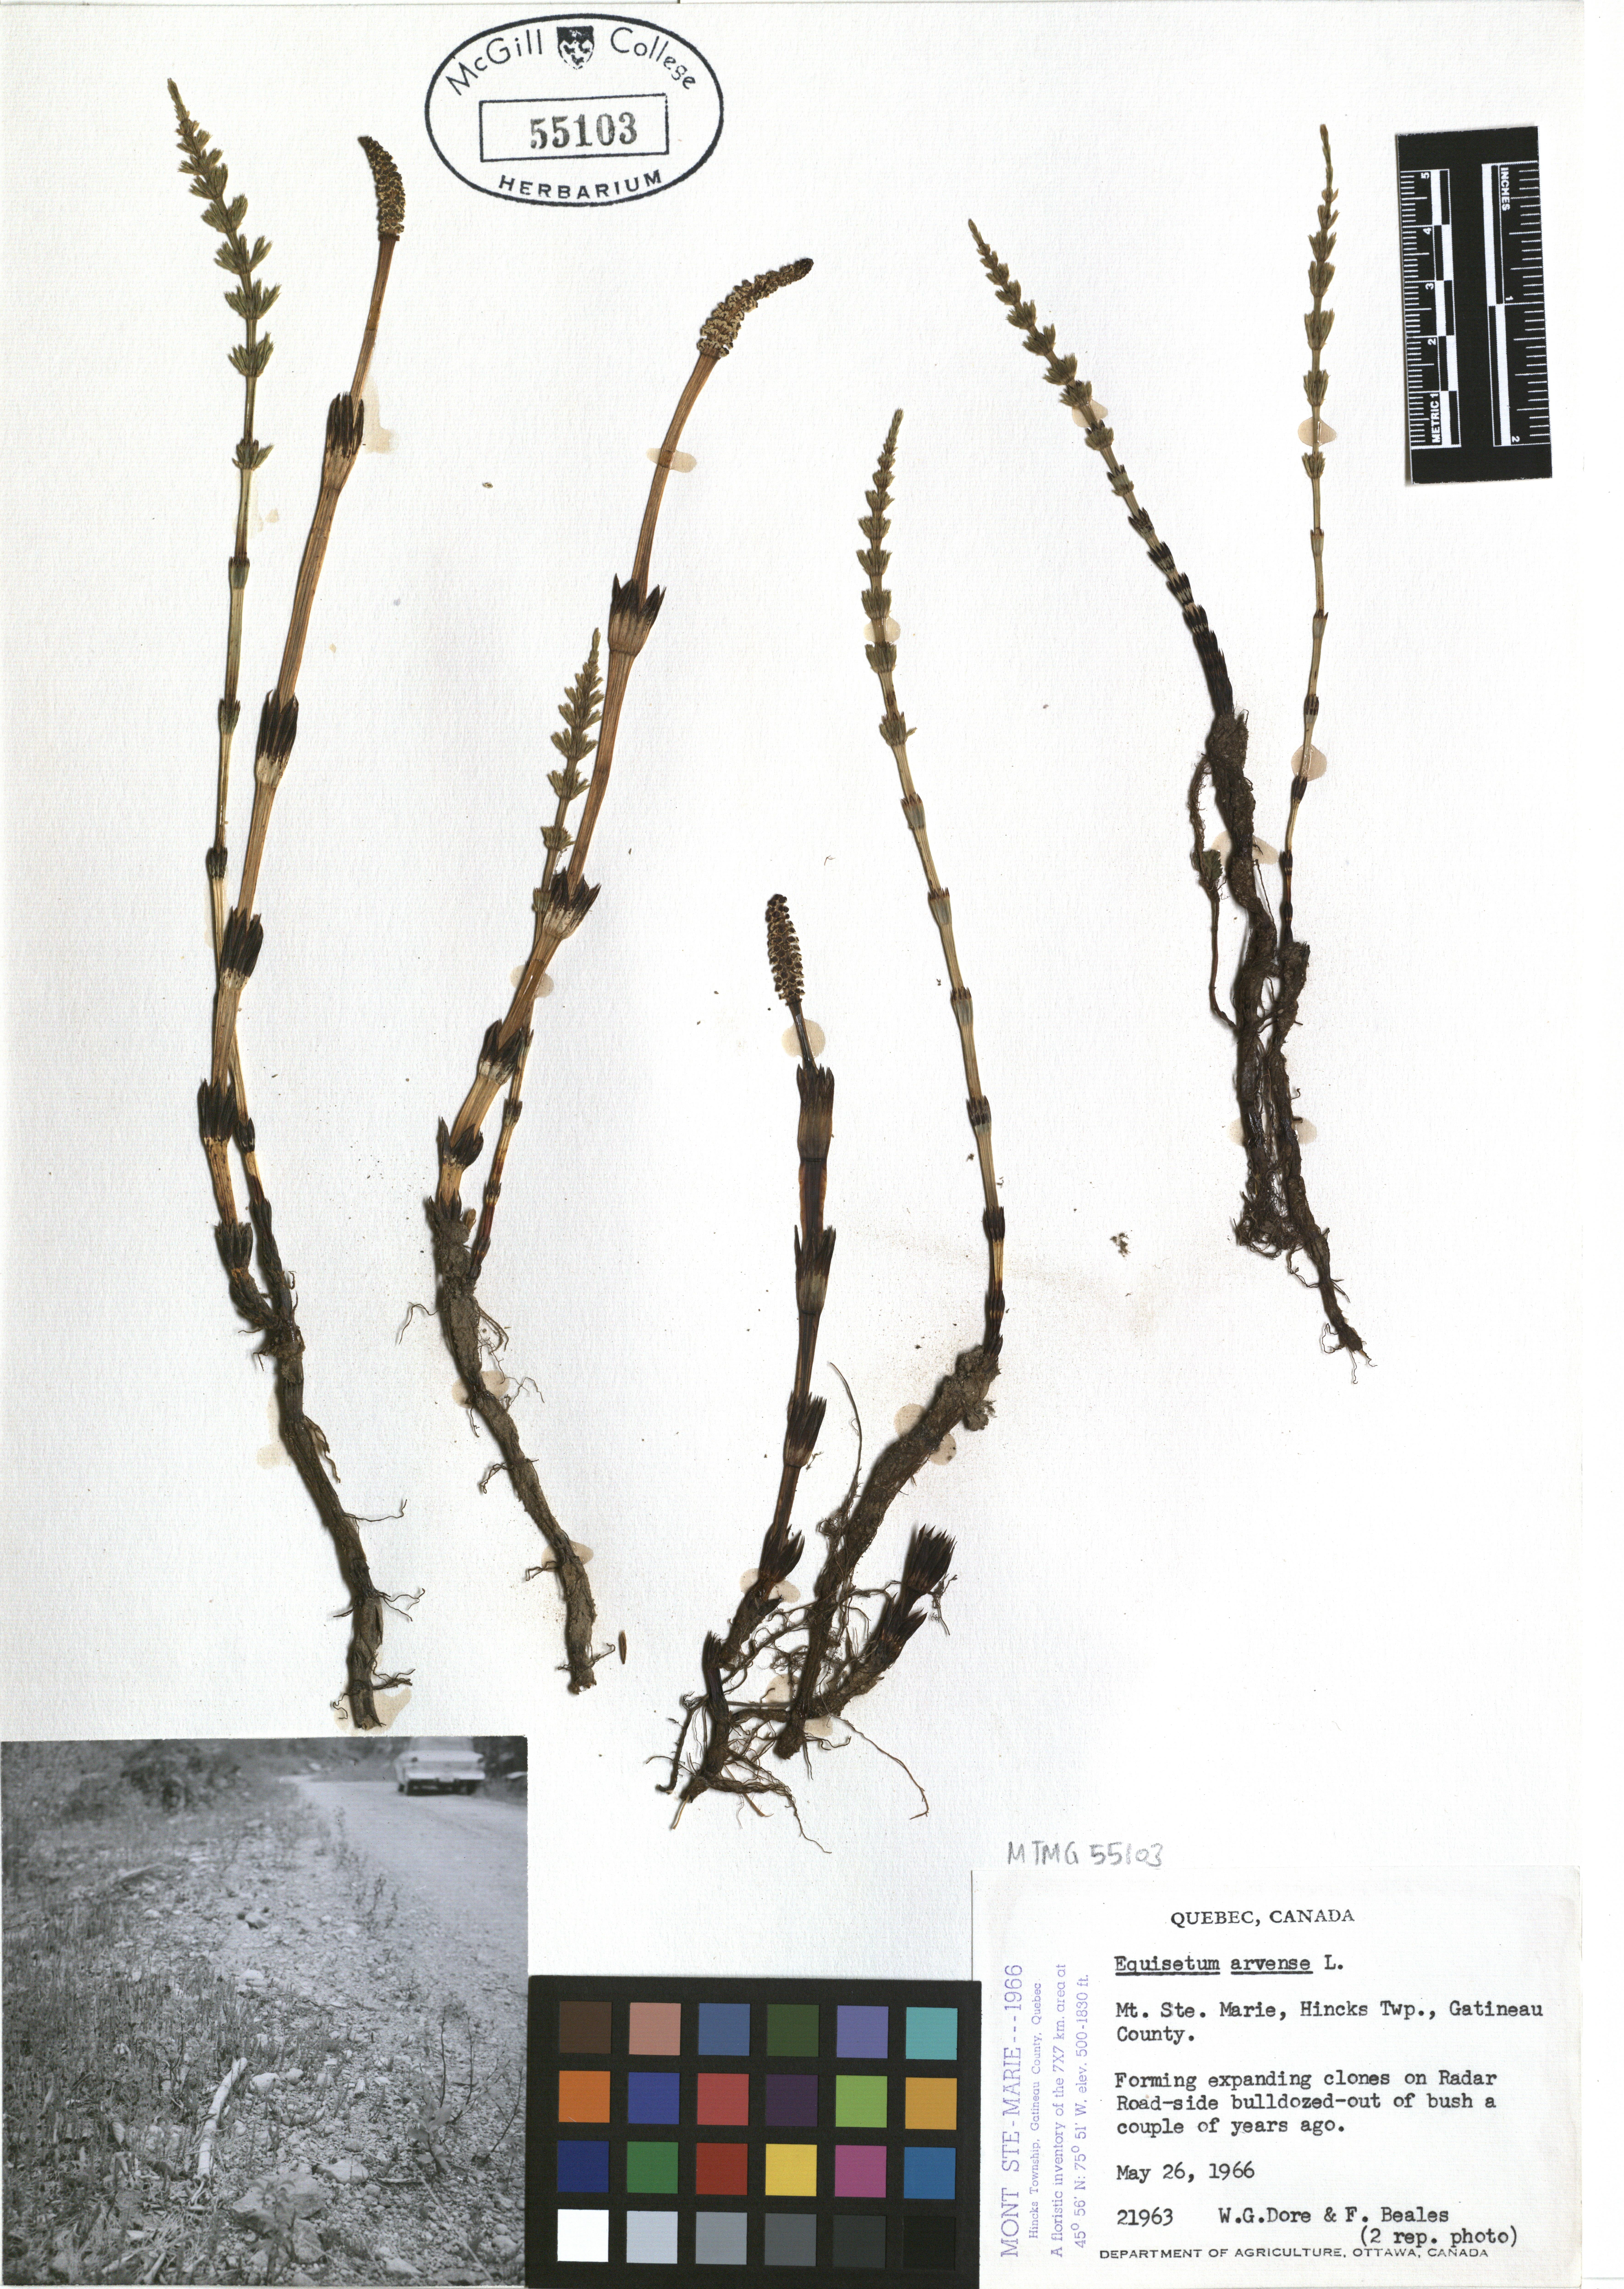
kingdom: Plantae
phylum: Tracheophyta
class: Polypodiopsida
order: Equisetales
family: Equisetaceae
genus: Equisetum
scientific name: Equisetum arvense
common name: Field horsetail
